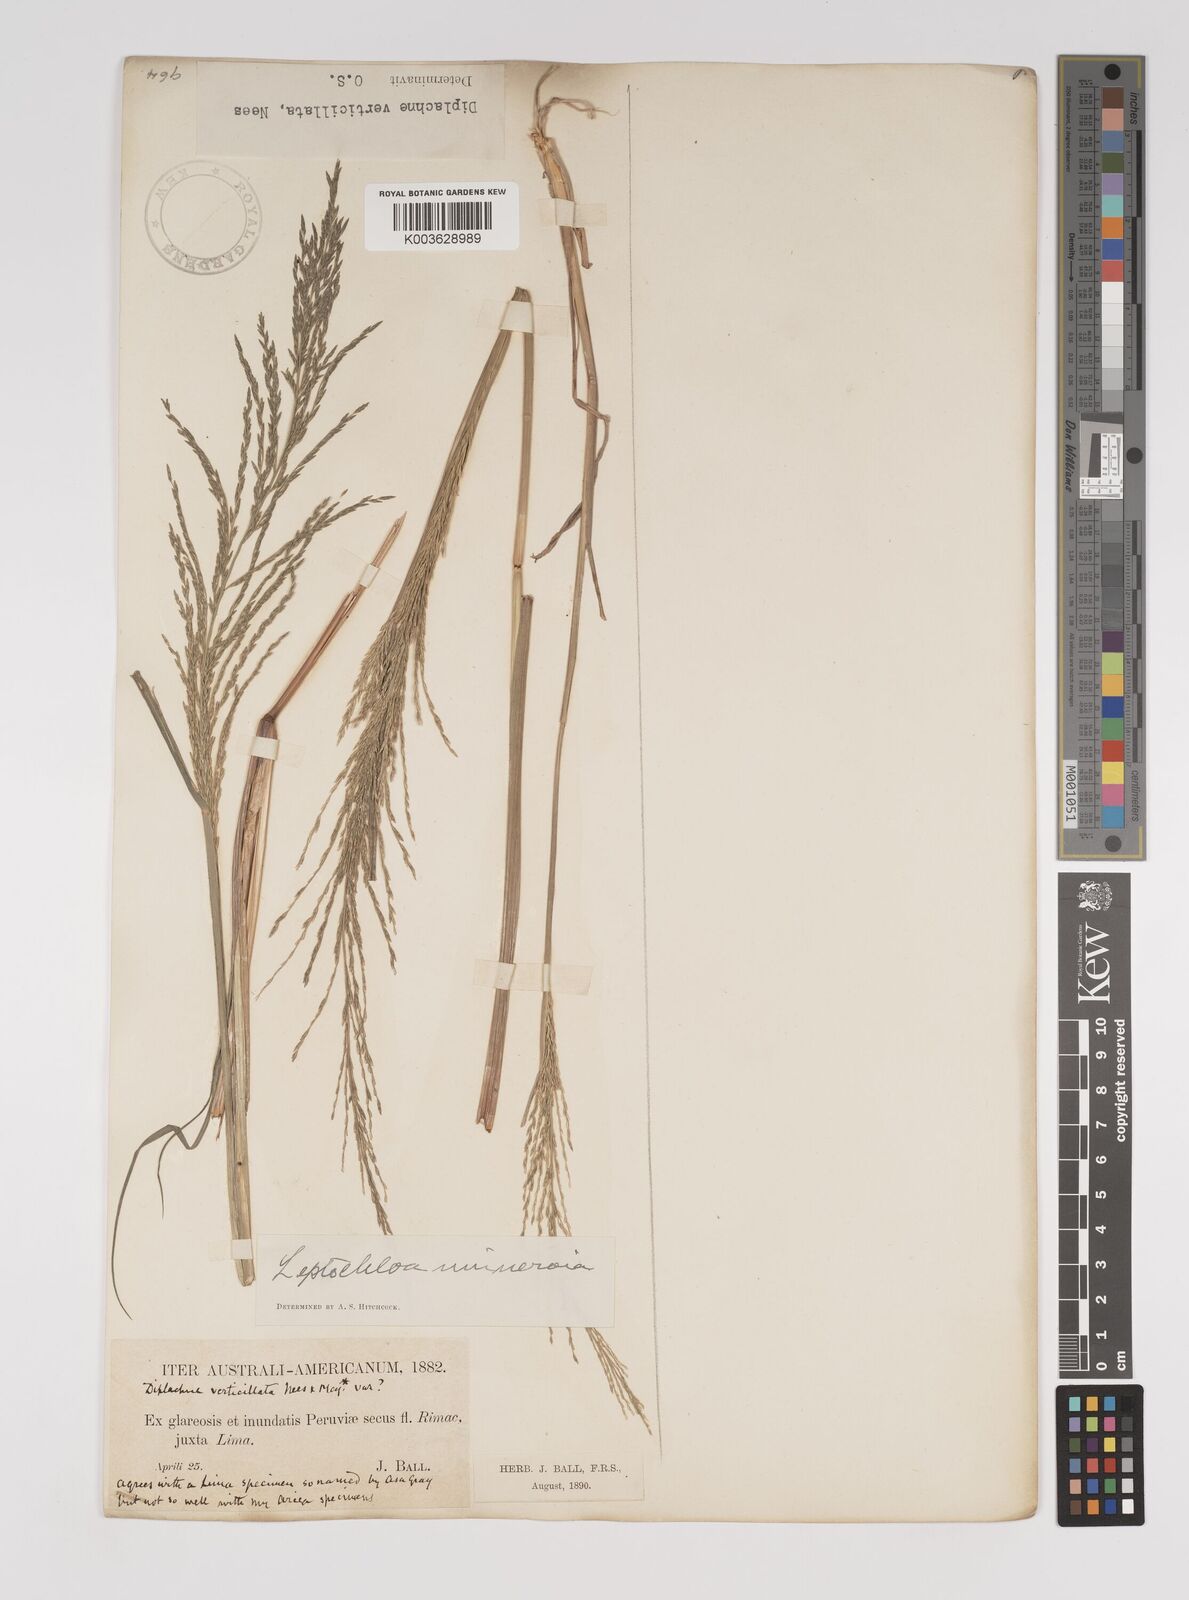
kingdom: Plantae
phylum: Tracheophyta
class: Liliopsida
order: Poales
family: Poaceae
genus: Diplachne
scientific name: Diplachne fusca
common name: Brown beetle grass
